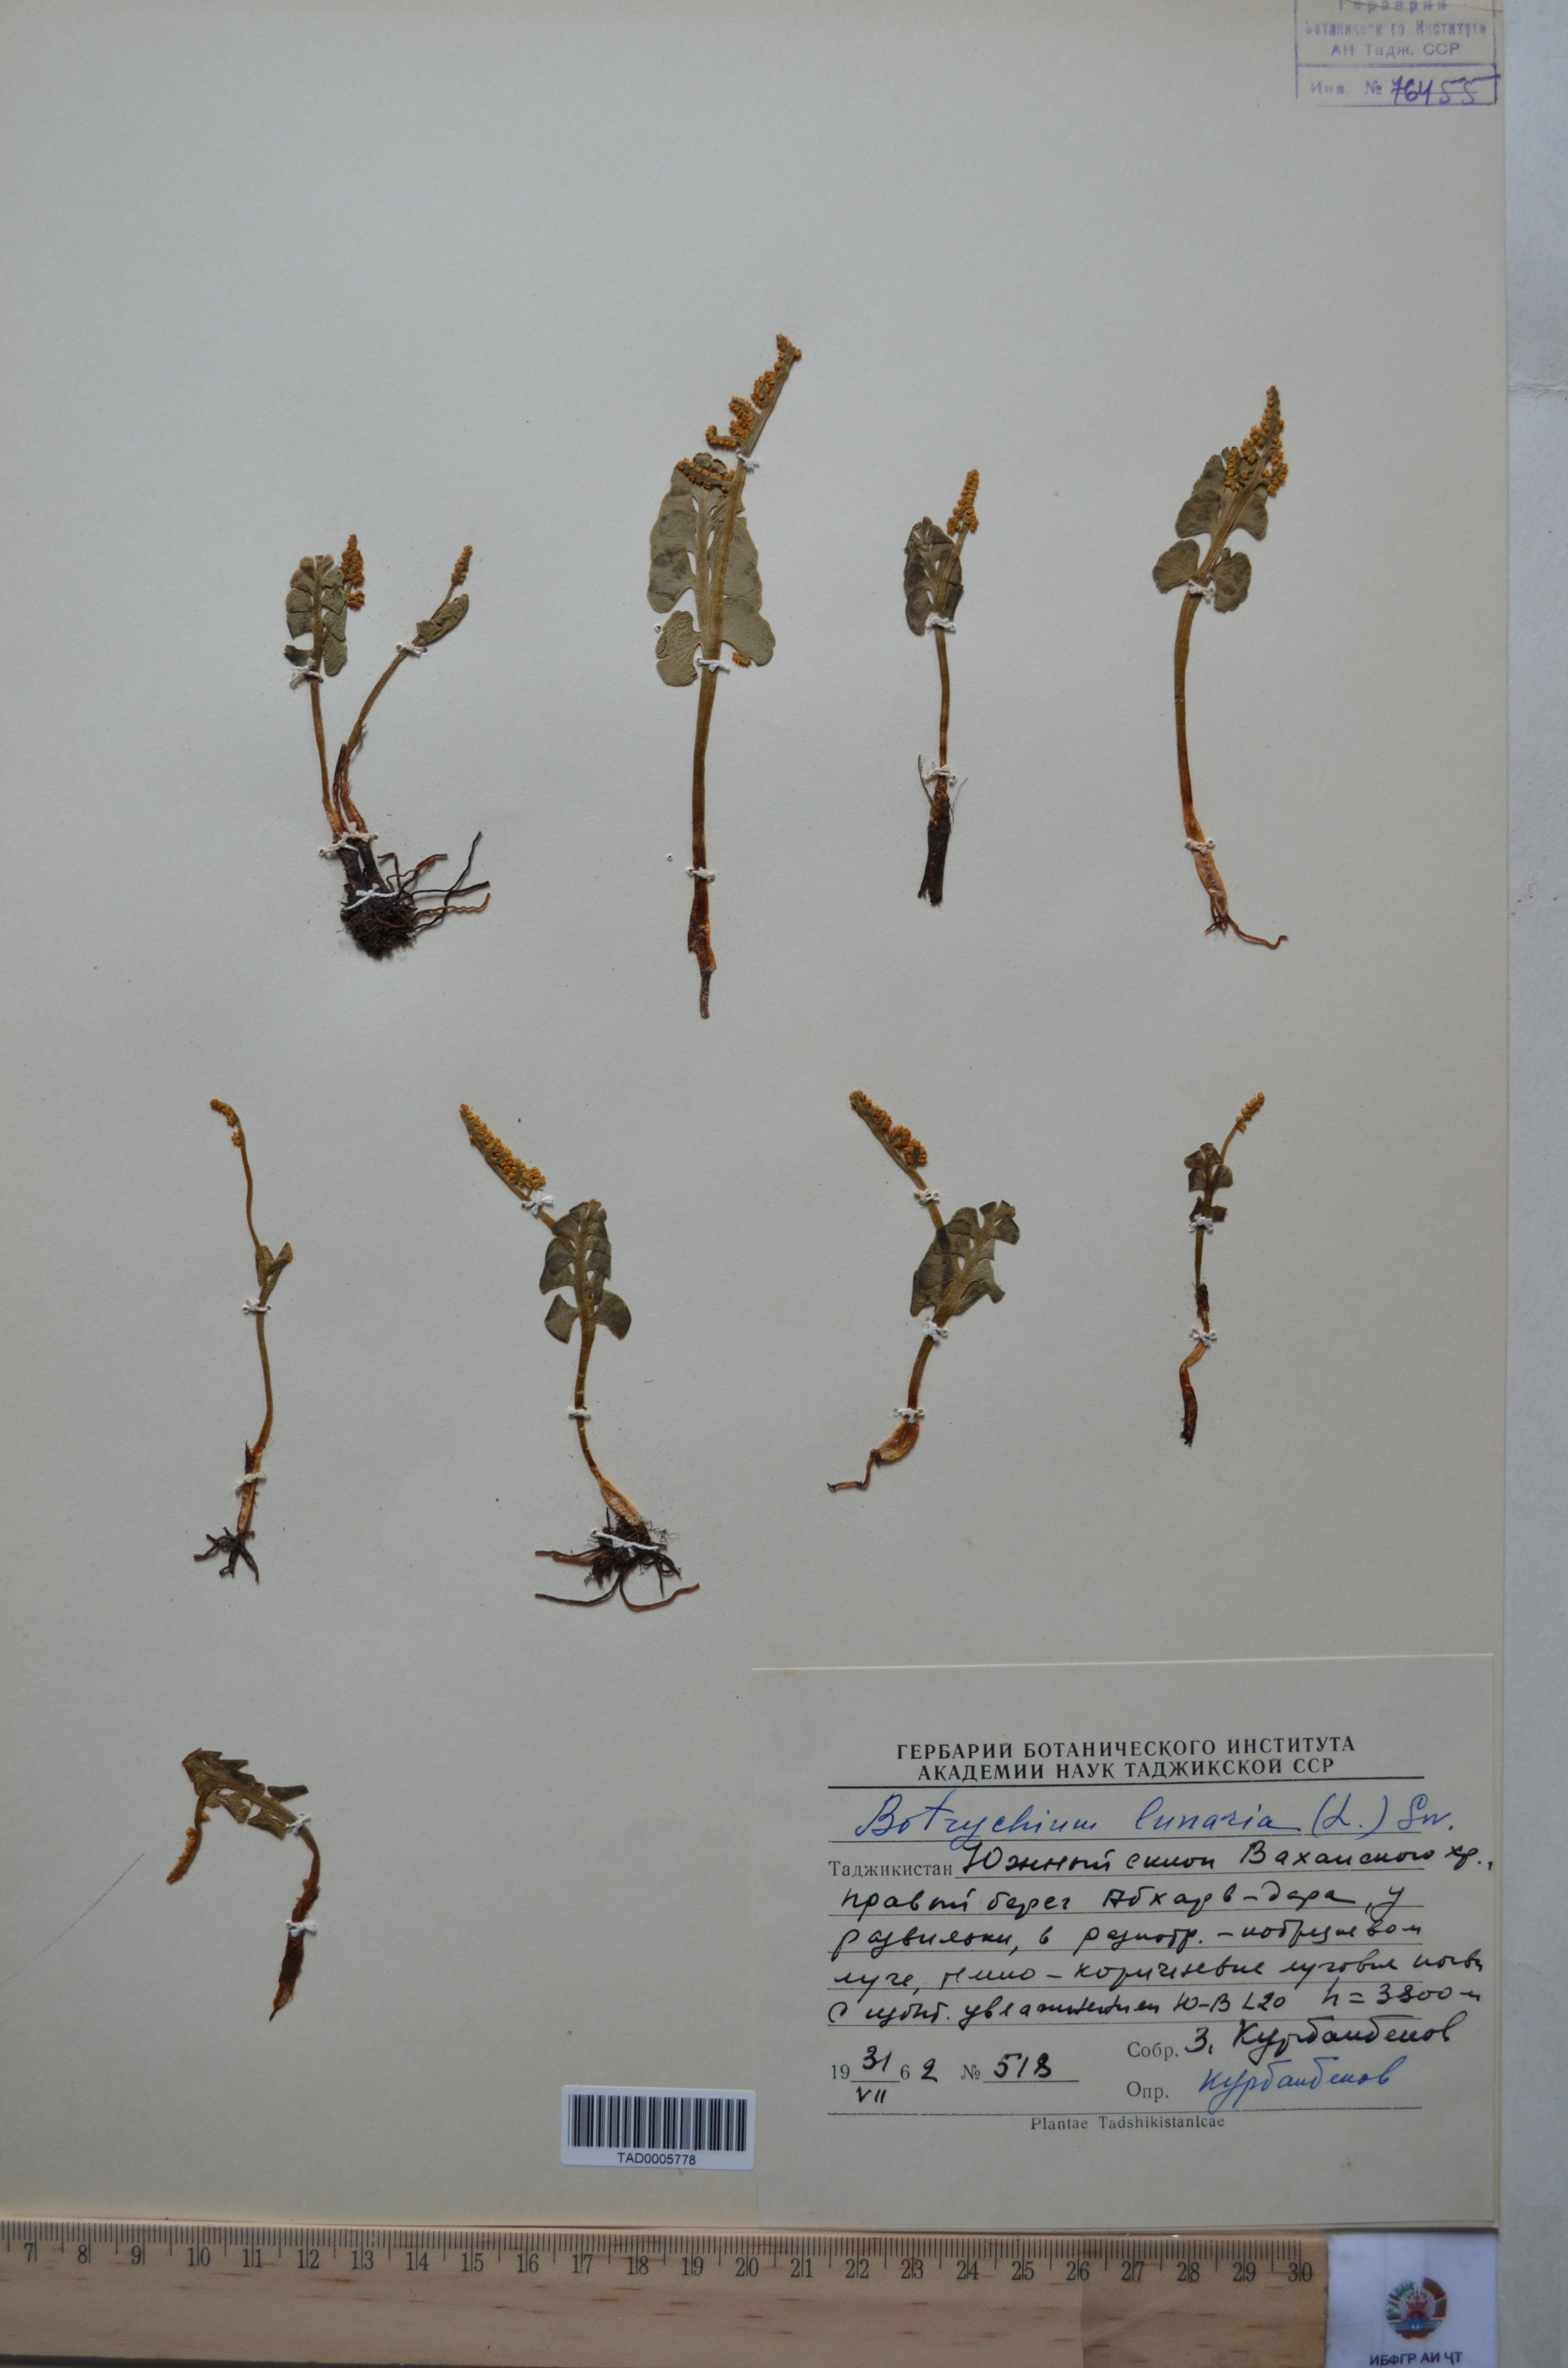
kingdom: Plantae
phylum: Tracheophyta
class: Polypodiopsida
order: Ophioglossales
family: Ophioglossaceae
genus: Botrychium
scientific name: Botrychium lunaria
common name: Moonwort
